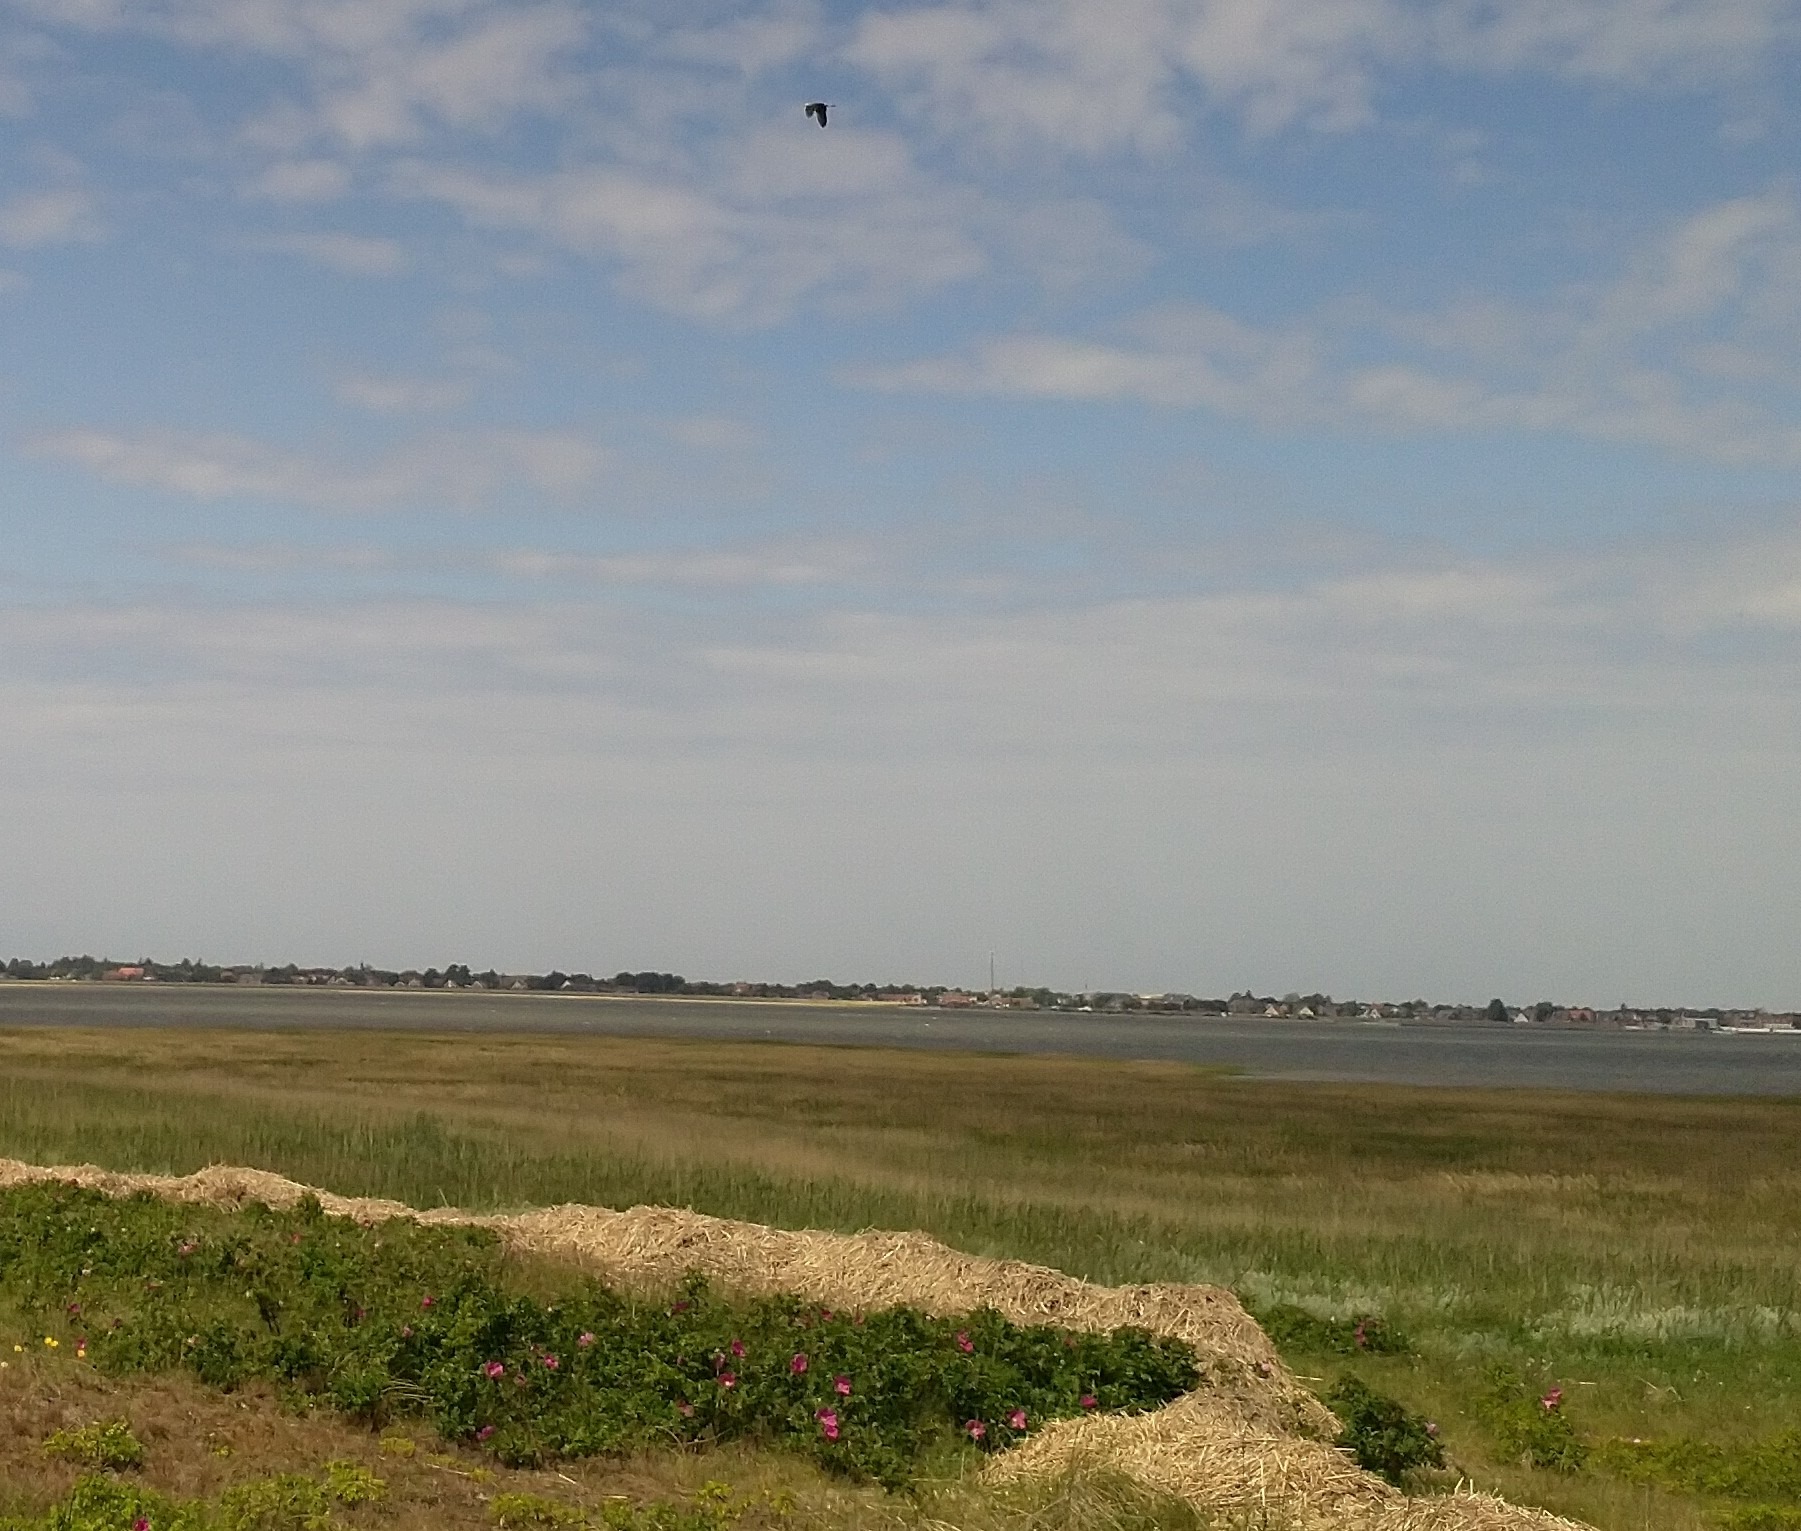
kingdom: Animalia
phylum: Chordata
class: Aves
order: Pelecaniformes
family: Ardeidae
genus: Ardea
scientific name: Ardea cinerea
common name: Fiskehejre
